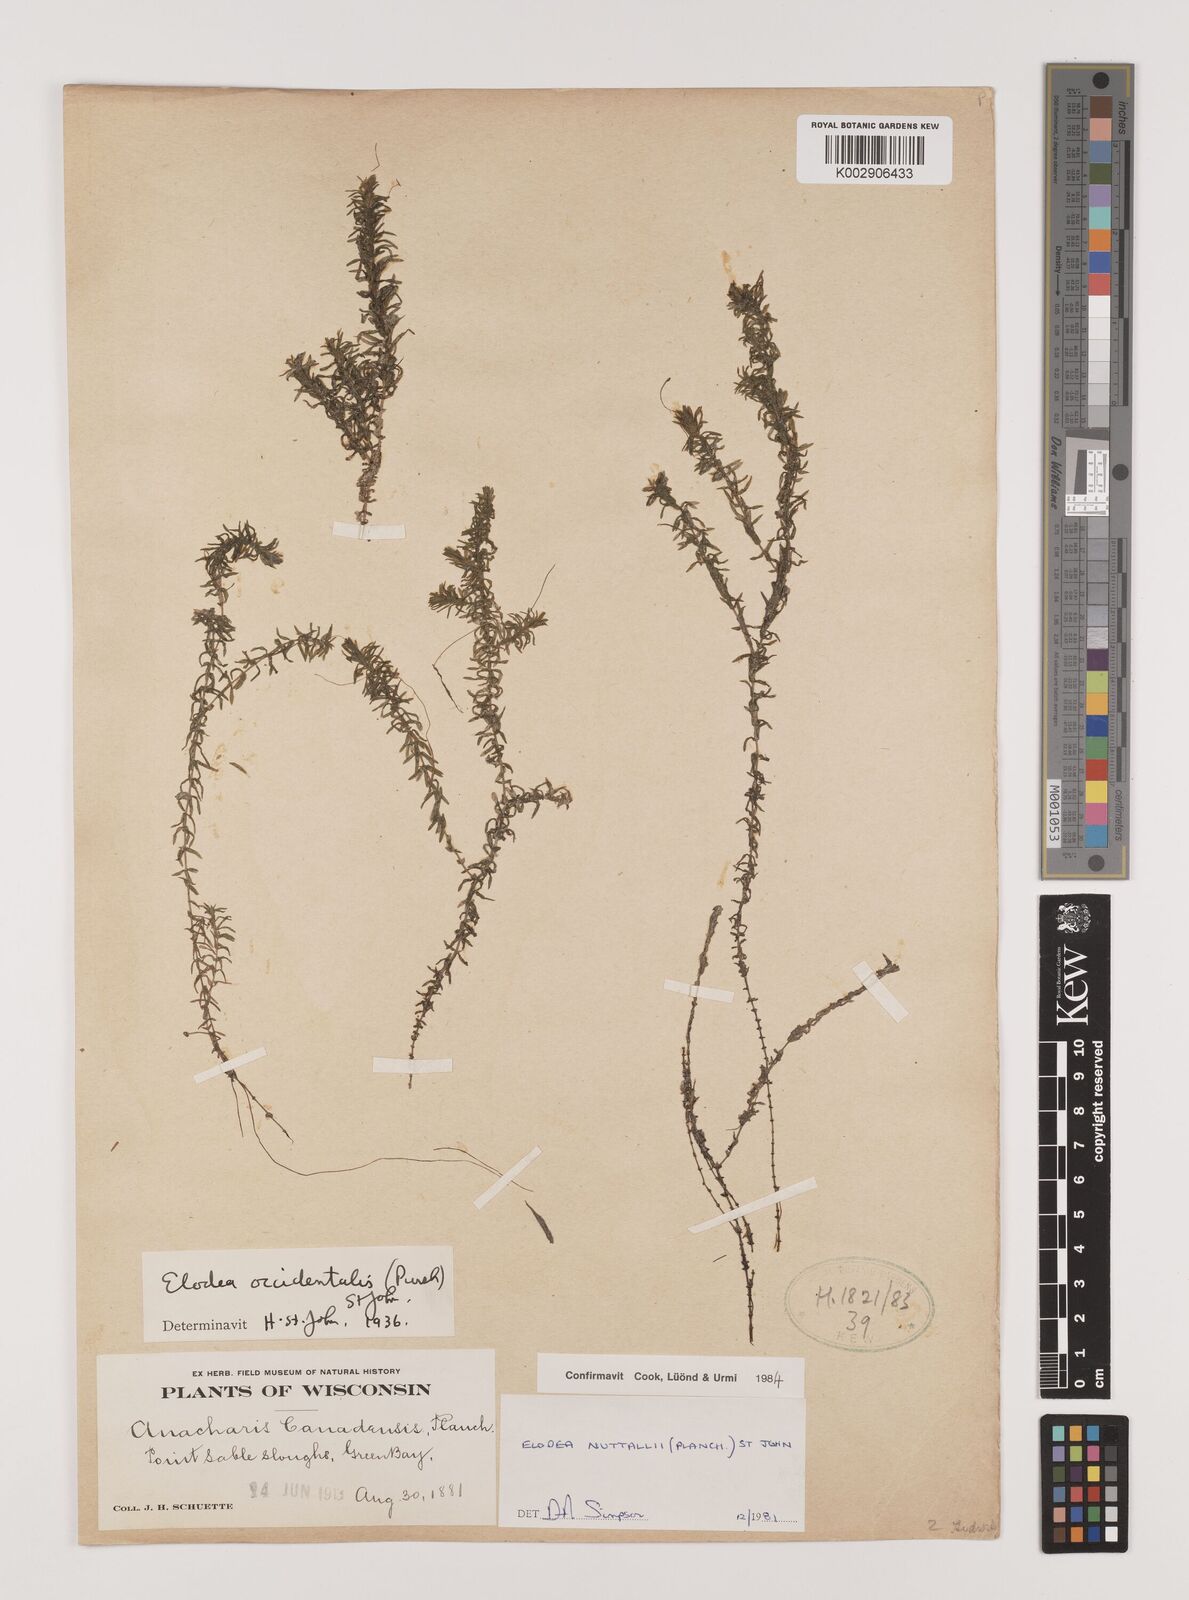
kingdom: Plantae
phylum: Tracheophyta
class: Liliopsida
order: Alismatales
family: Hydrocharitaceae
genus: Elodea
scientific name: Elodea nuttallii
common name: Nuttall's waterweed
